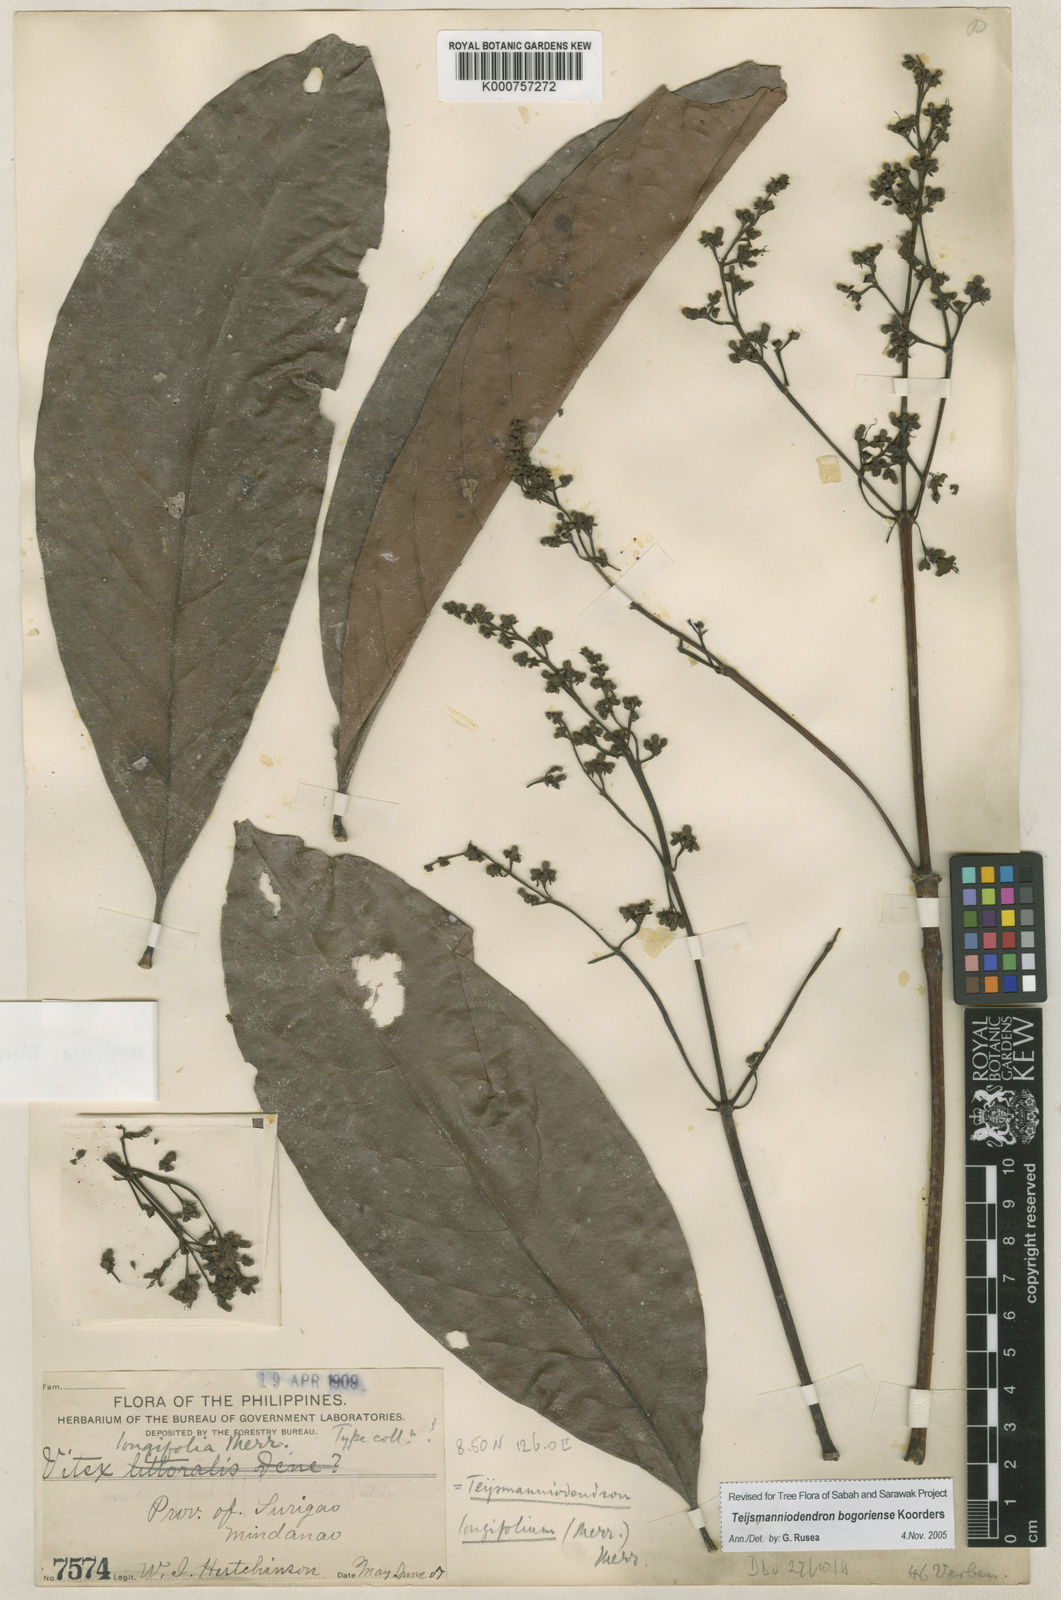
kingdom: Plantae
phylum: Tracheophyta
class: Magnoliopsida
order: Lamiales
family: Lamiaceae
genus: Teijsmanniodendron
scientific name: Teijsmanniodendron bogoriense
